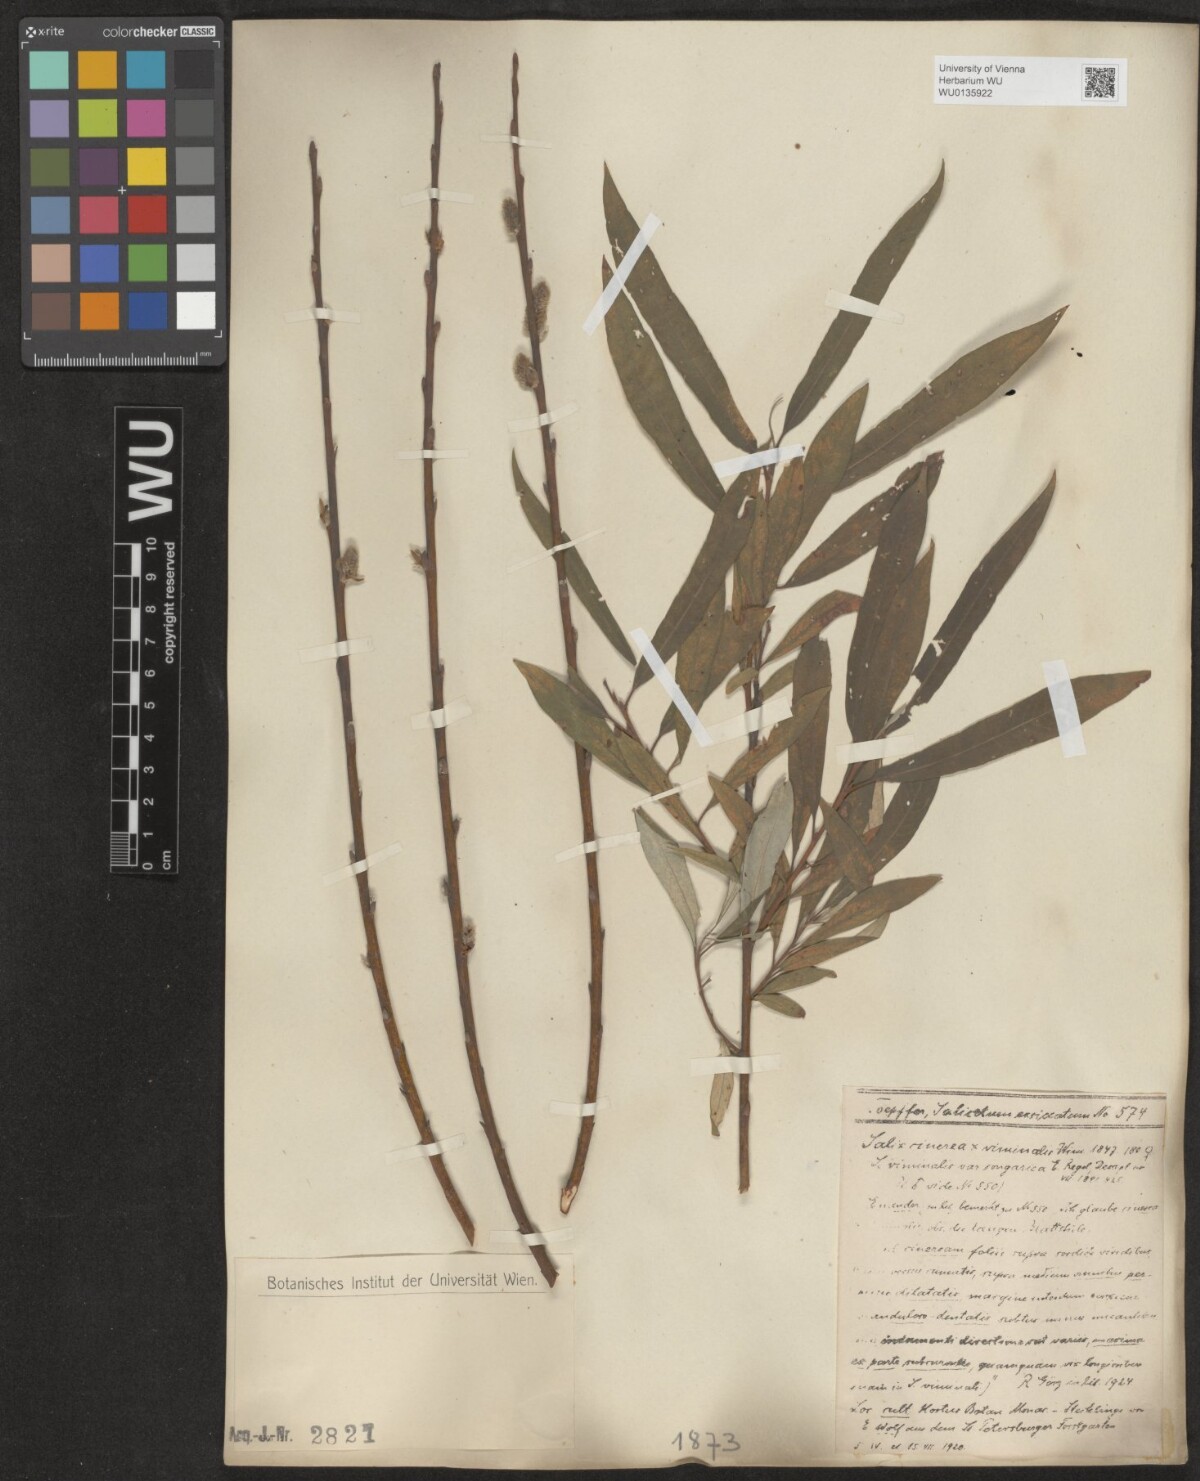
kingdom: Plantae
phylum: Tracheophyta
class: Magnoliopsida
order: Malpighiales
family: Salicaceae
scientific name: Salicaceae
